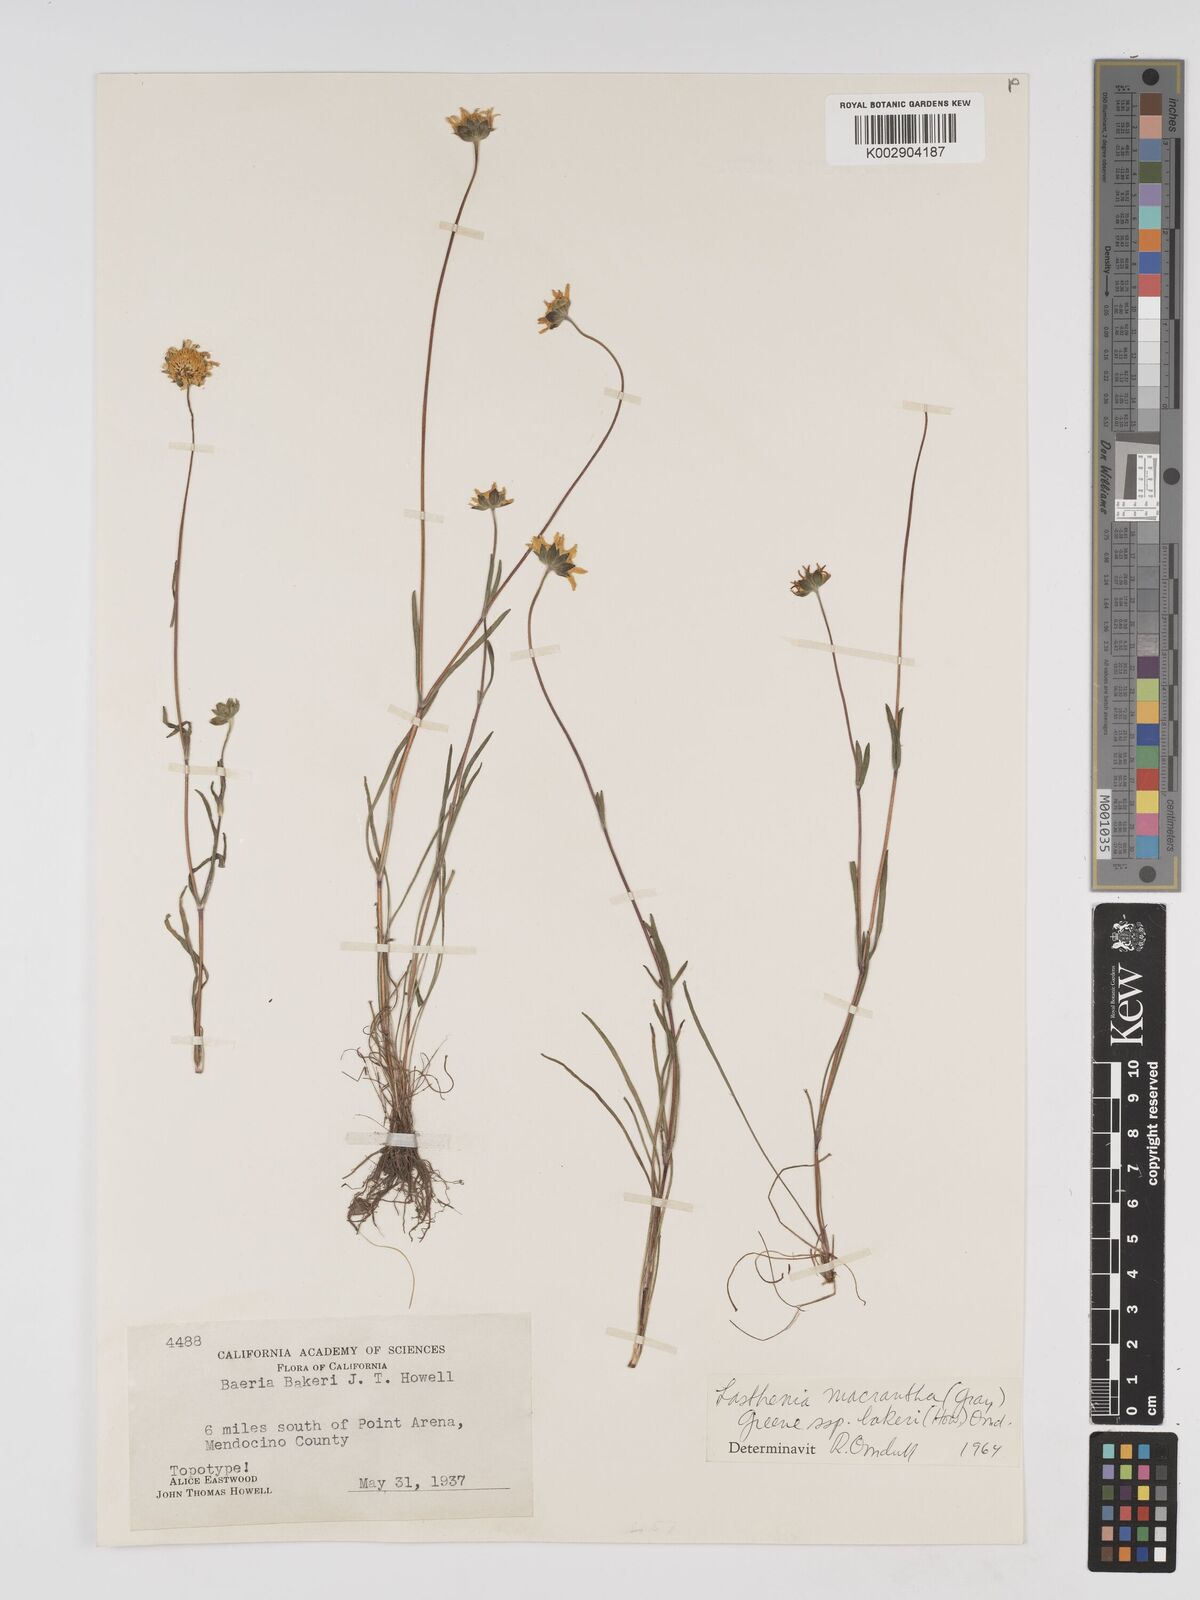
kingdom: Plantae
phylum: Tracheophyta
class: Magnoliopsida
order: Asterales
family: Asteraceae
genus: Lasthenia
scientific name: Lasthenia californica
